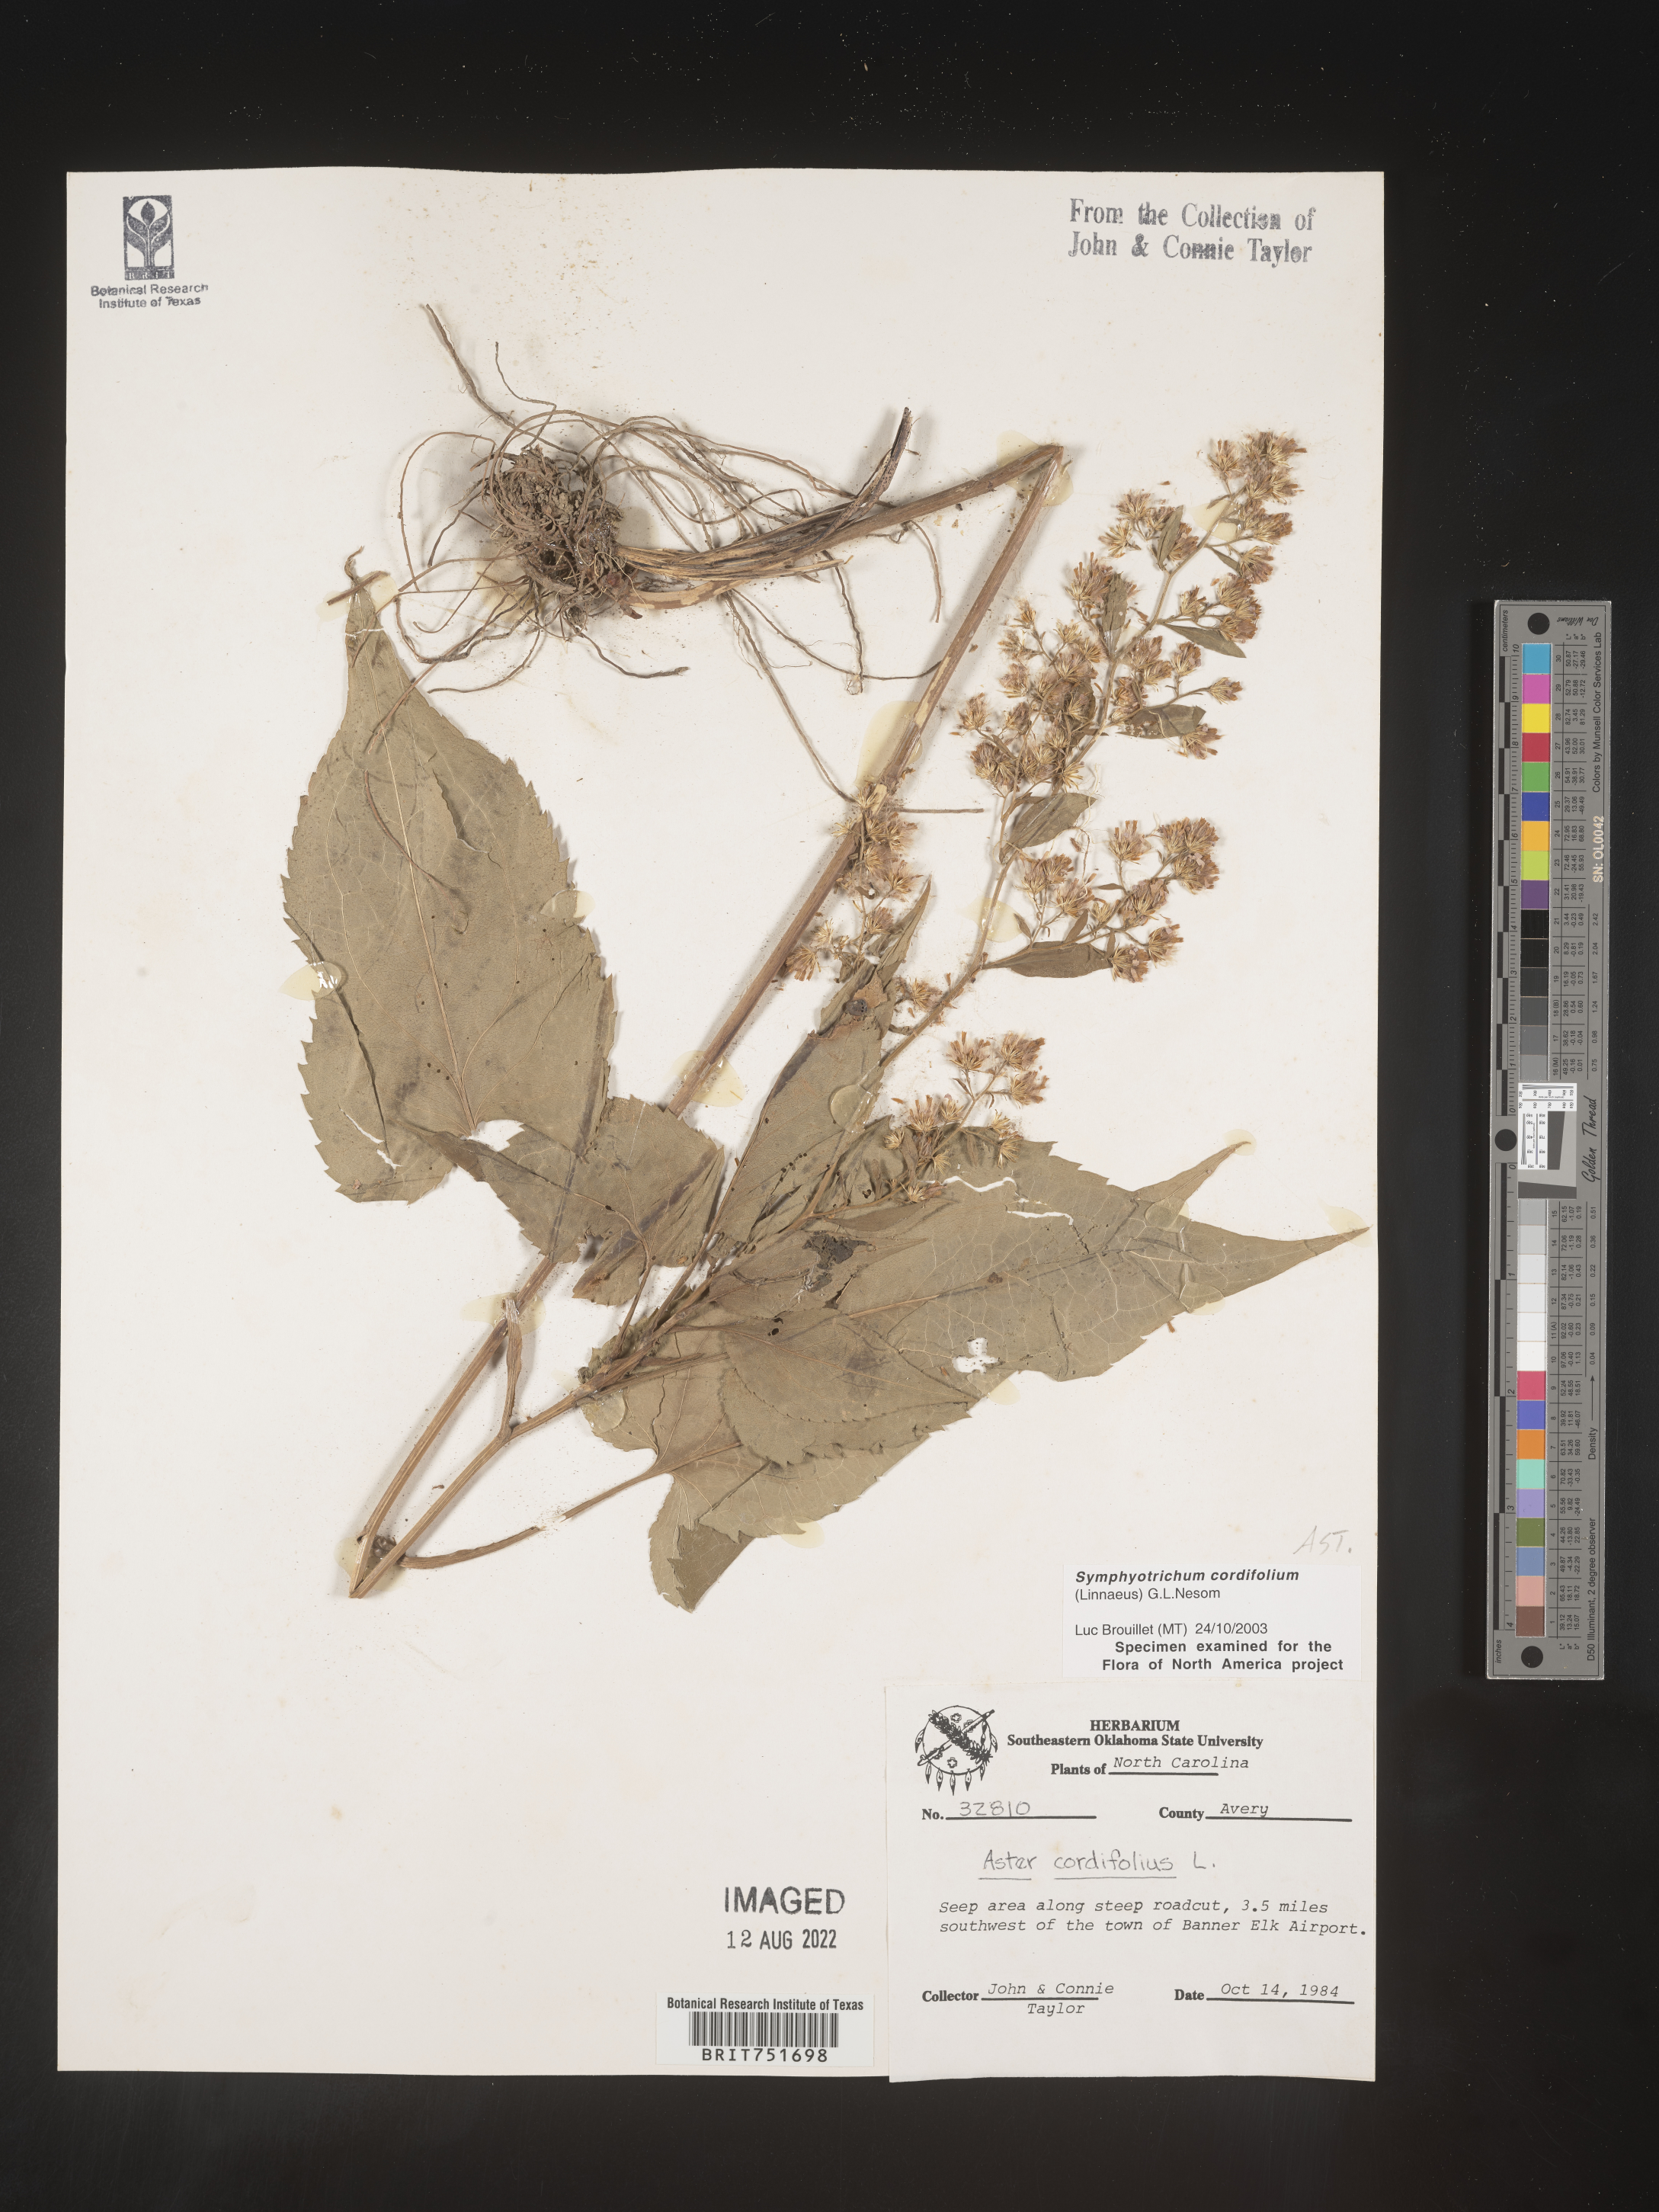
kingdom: Plantae
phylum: Tracheophyta
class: Magnoliopsida
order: Asterales
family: Asteraceae
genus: Symphyotrichum
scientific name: Symphyotrichum cordifolium
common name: Beeweed
